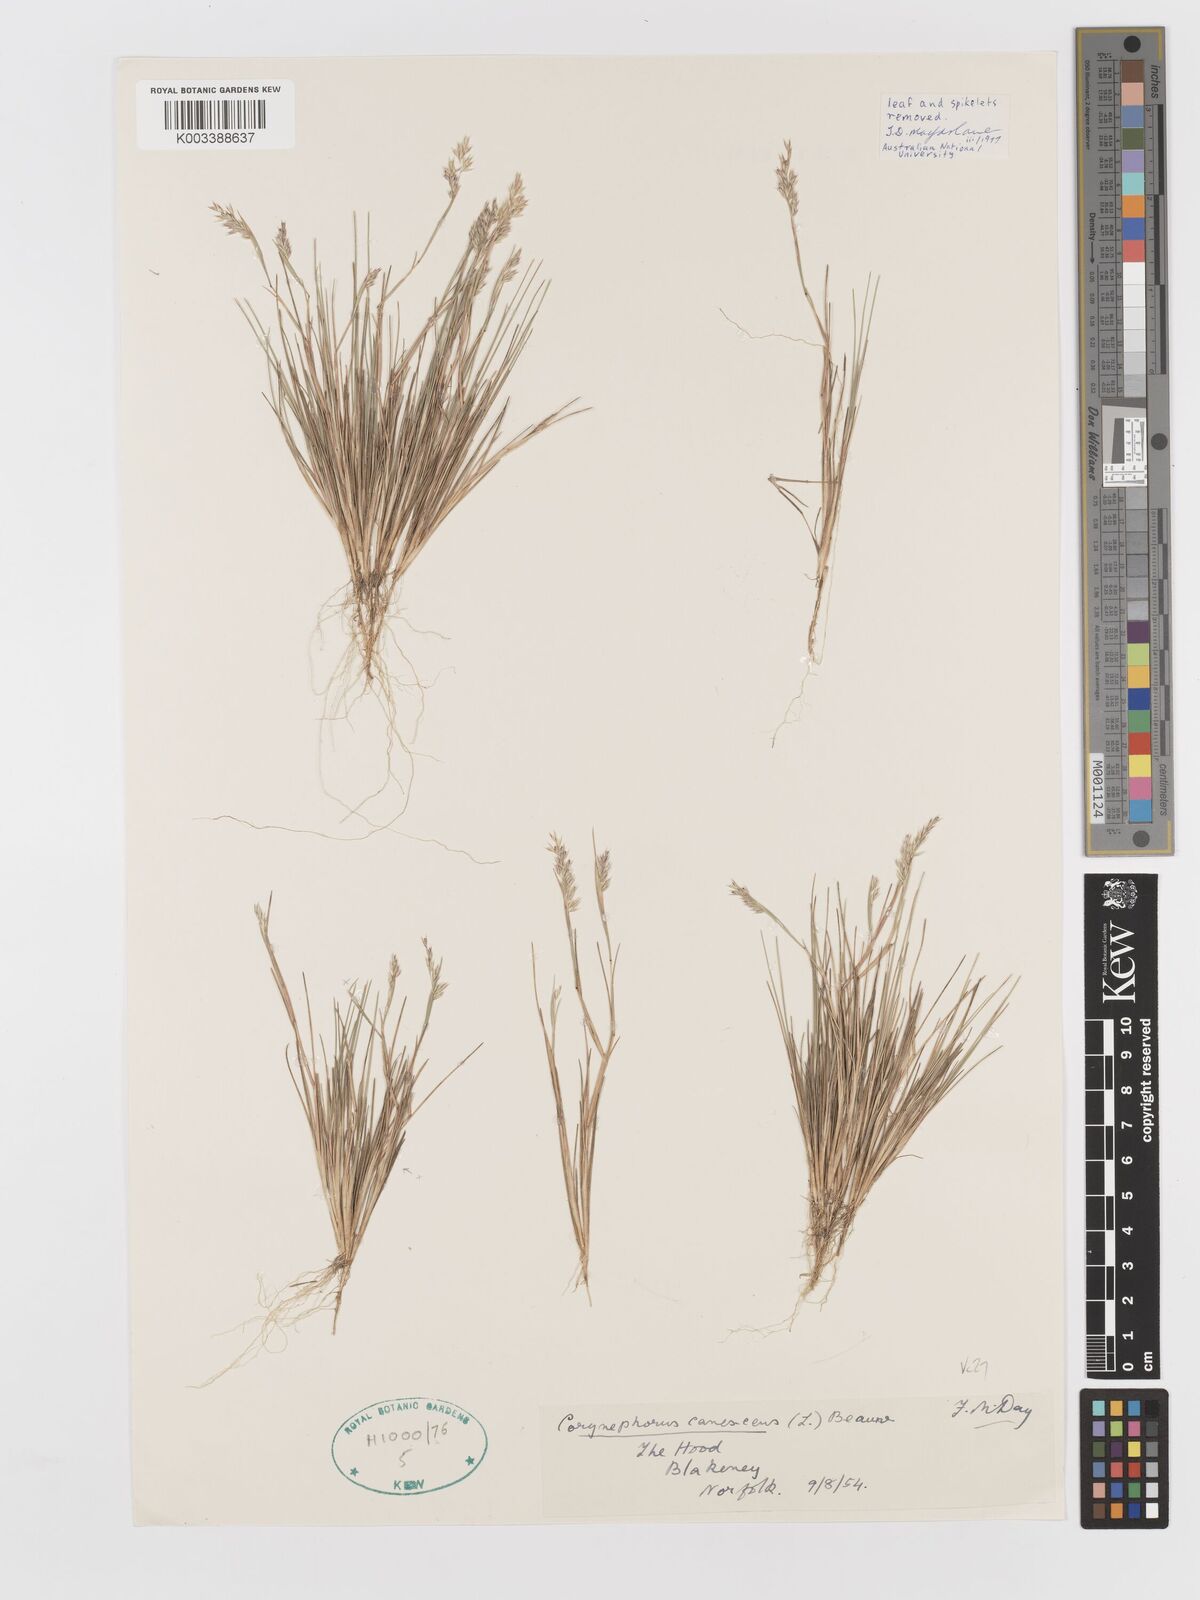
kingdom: Plantae
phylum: Tracheophyta
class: Liliopsida
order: Poales
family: Poaceae
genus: Corynephorus
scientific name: Corynephorus canescens
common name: Grey hair-grass
